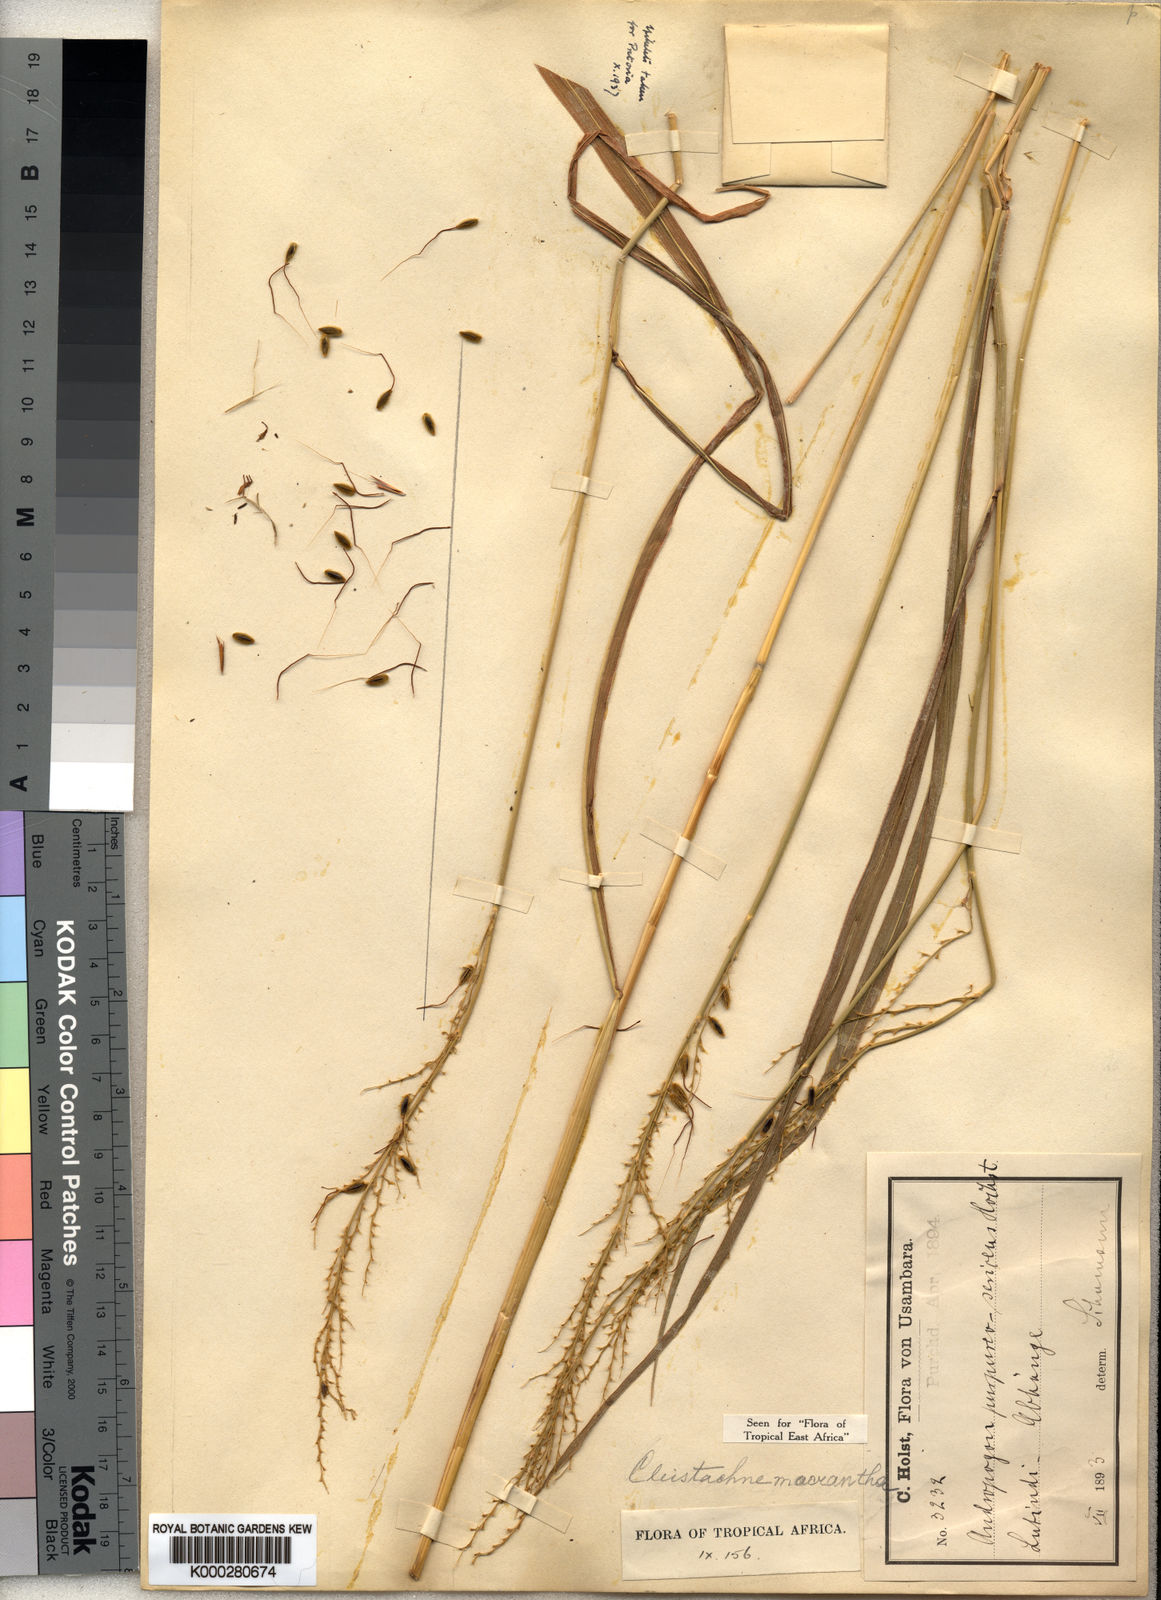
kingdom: Plantae
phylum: Tracheophyta
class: Liliopsida
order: Poales
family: Poaceae
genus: Cleistachne
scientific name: Cleistachne sorghoides
